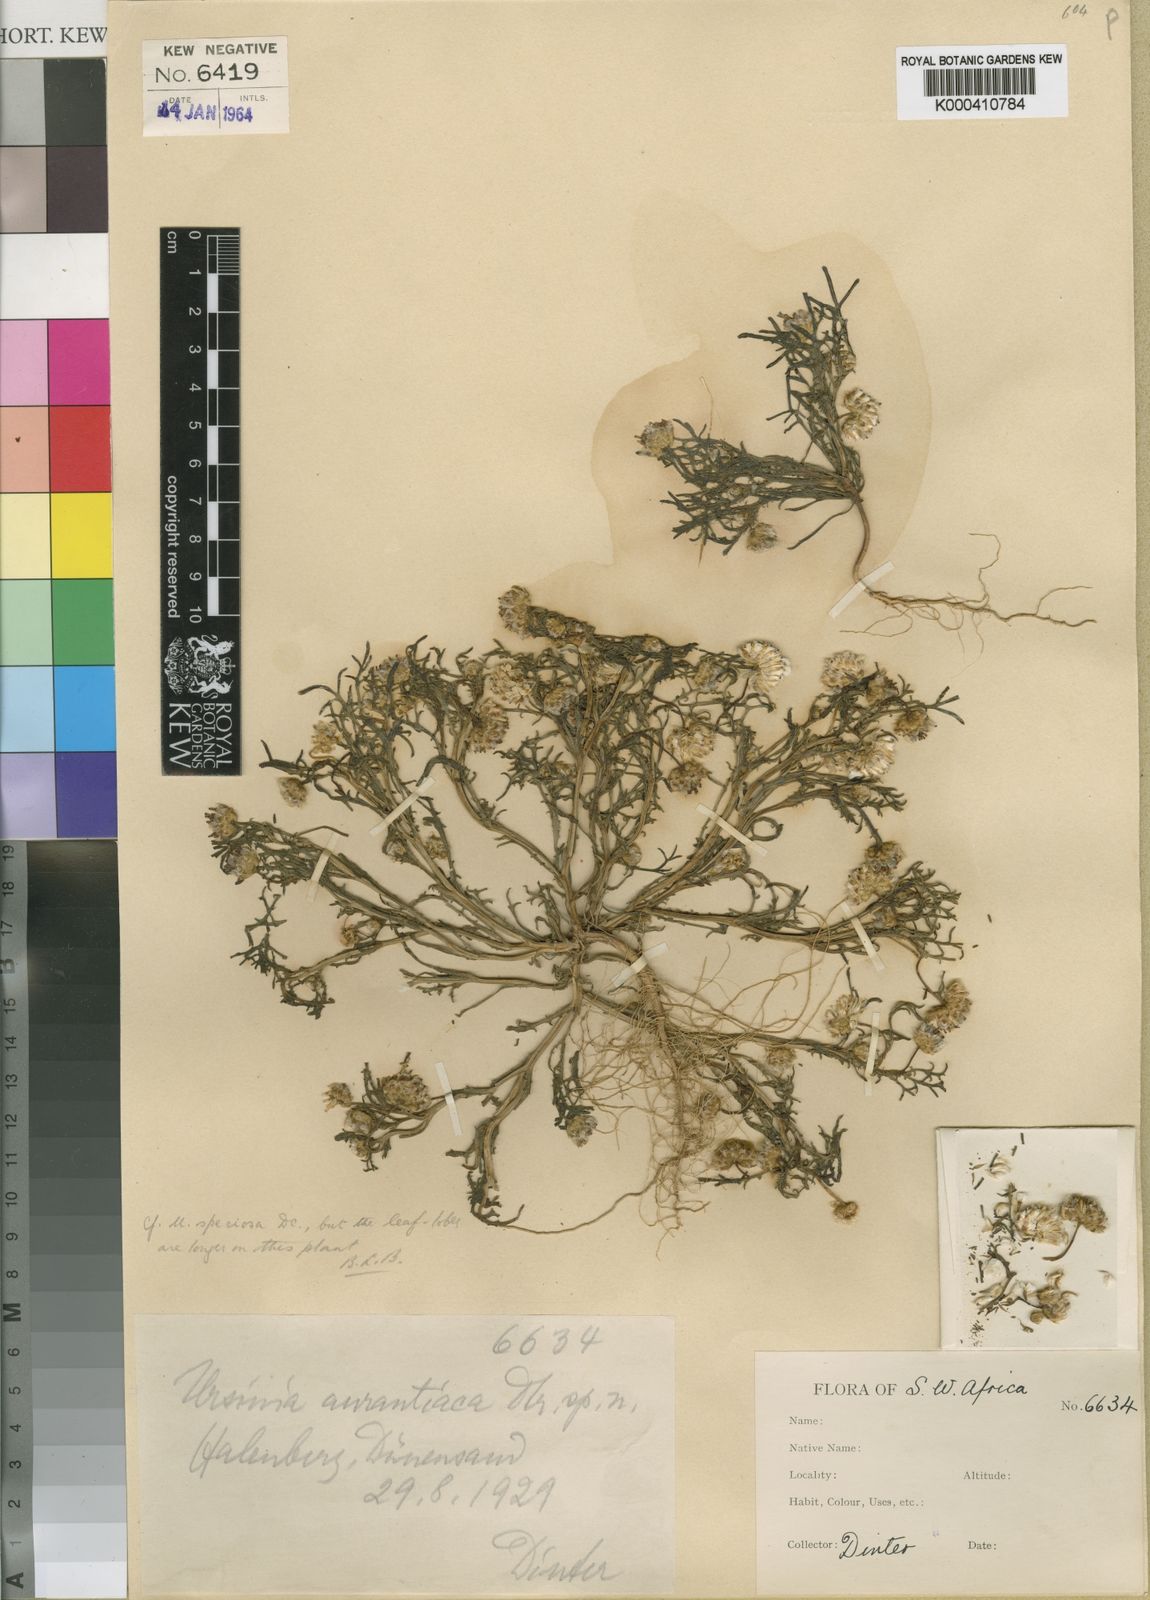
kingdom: Plantae
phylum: Tracheophyta
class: Magnoliopsida
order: Asterales
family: Asteraceae
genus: Ursinia
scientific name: Ursinia speciosa
